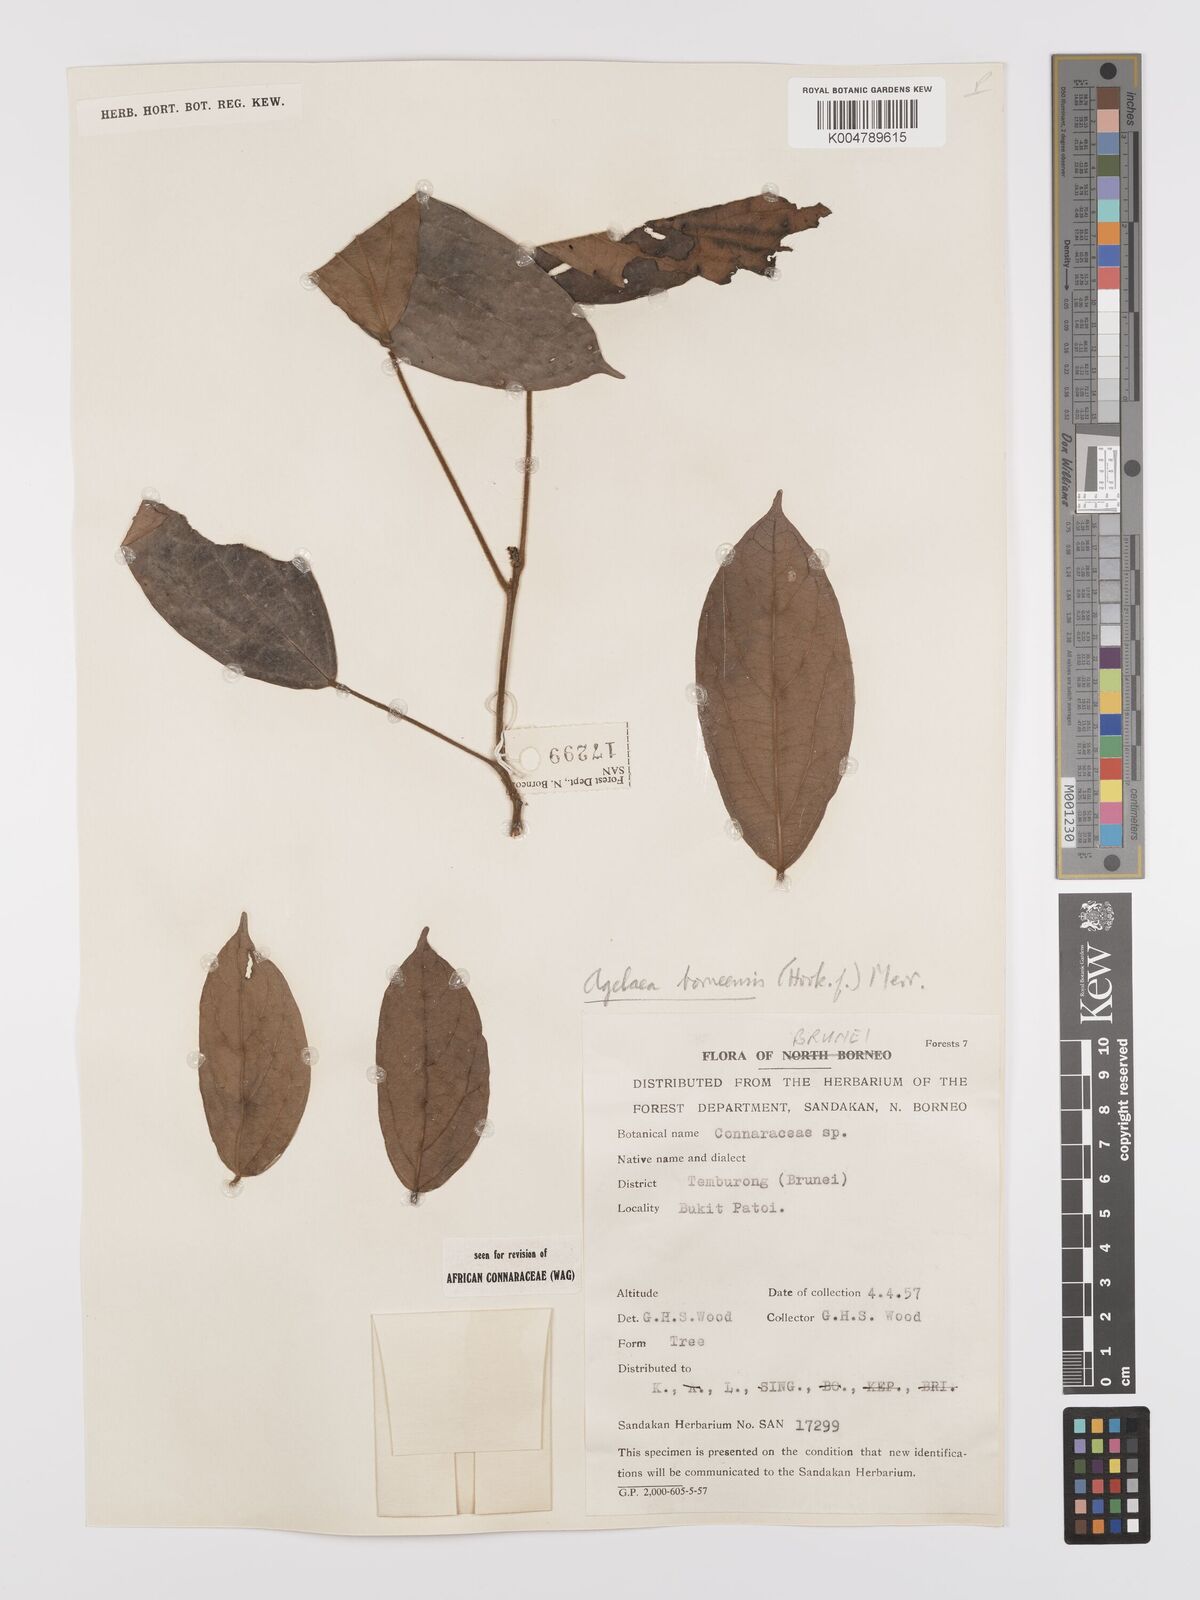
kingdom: Plantae
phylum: Tracheophyta
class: Magnoliopsida
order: Oxalidales
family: Connaraceae
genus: Agelaea
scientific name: Agelaea borneensis
